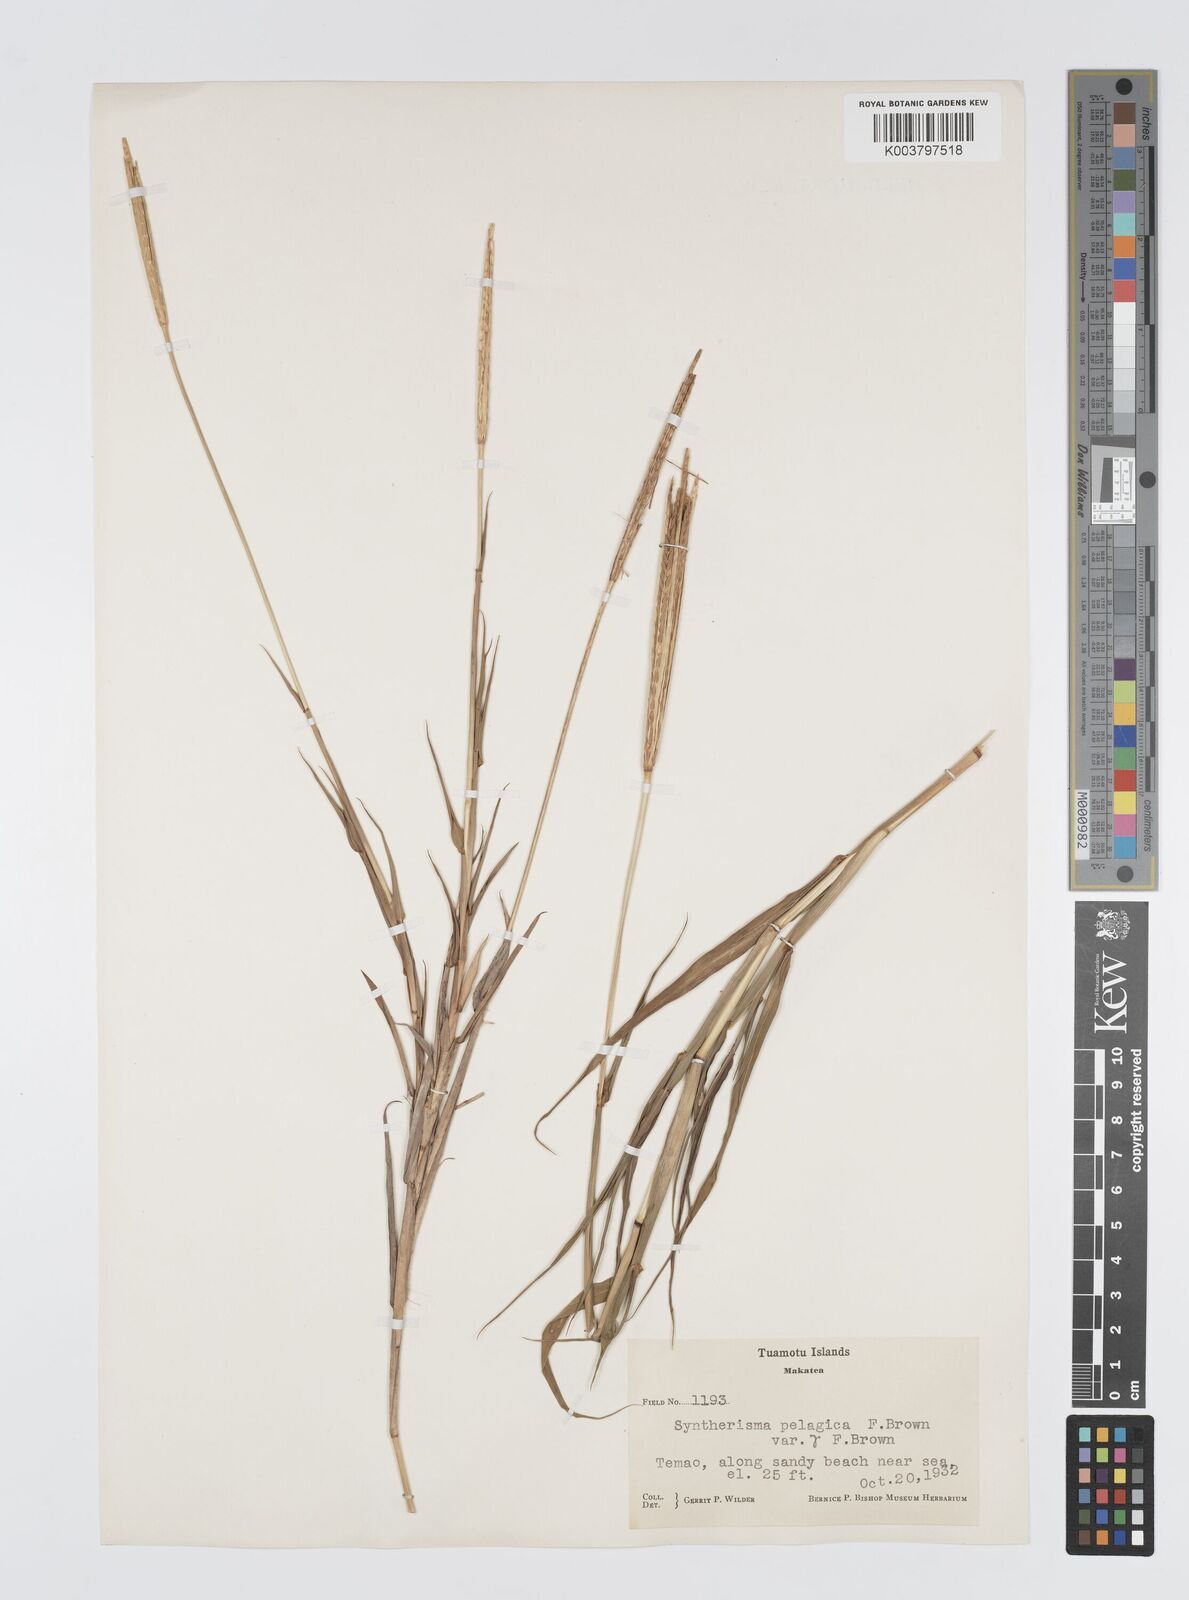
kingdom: Plantae
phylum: Tracheophyta
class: Liliopsida
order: Poales
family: Poaceae
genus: Digitaria
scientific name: Digitaria stenotaphrodes
